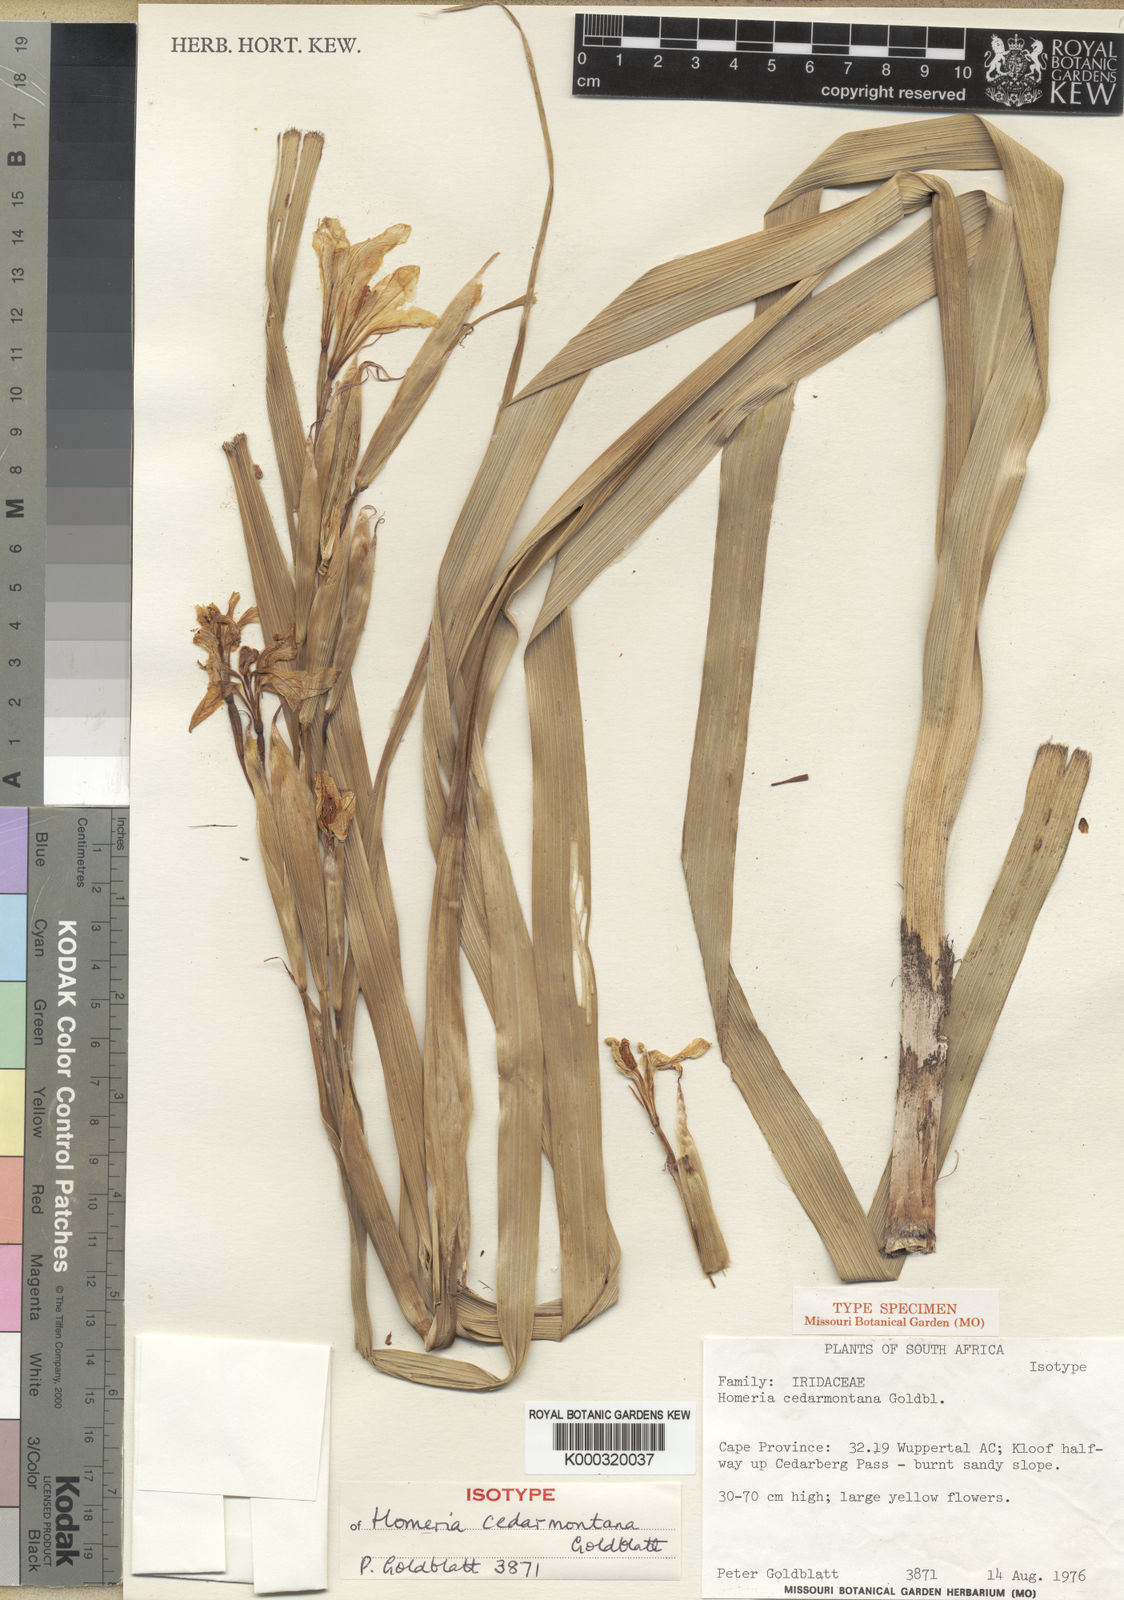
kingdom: Plantae
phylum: Tracheophyta
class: Liliopsida
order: Asparagales
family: Iridaceae
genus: Moraea
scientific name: Moraea cedarmonticola
